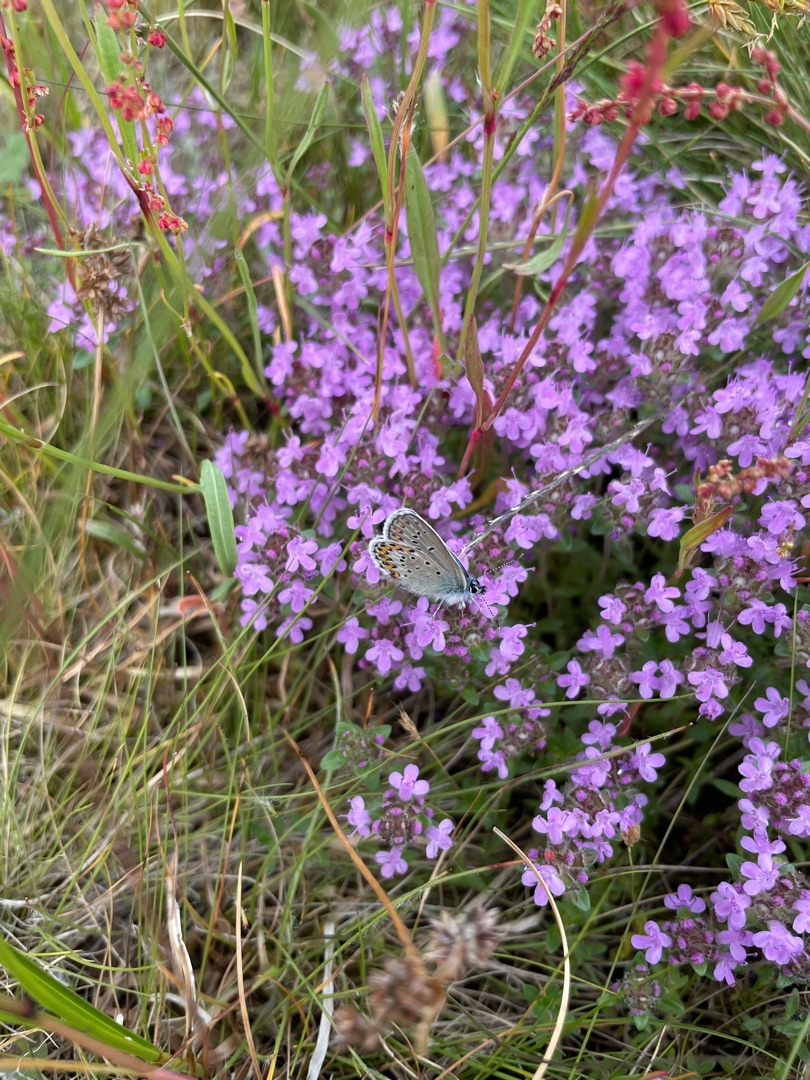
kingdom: Plantae
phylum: Tracheophyta
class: Magnoliopsida
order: Lamiales
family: Lamiaceae
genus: Thymus
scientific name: Thymus serpyllum
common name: Smalbladet timian
